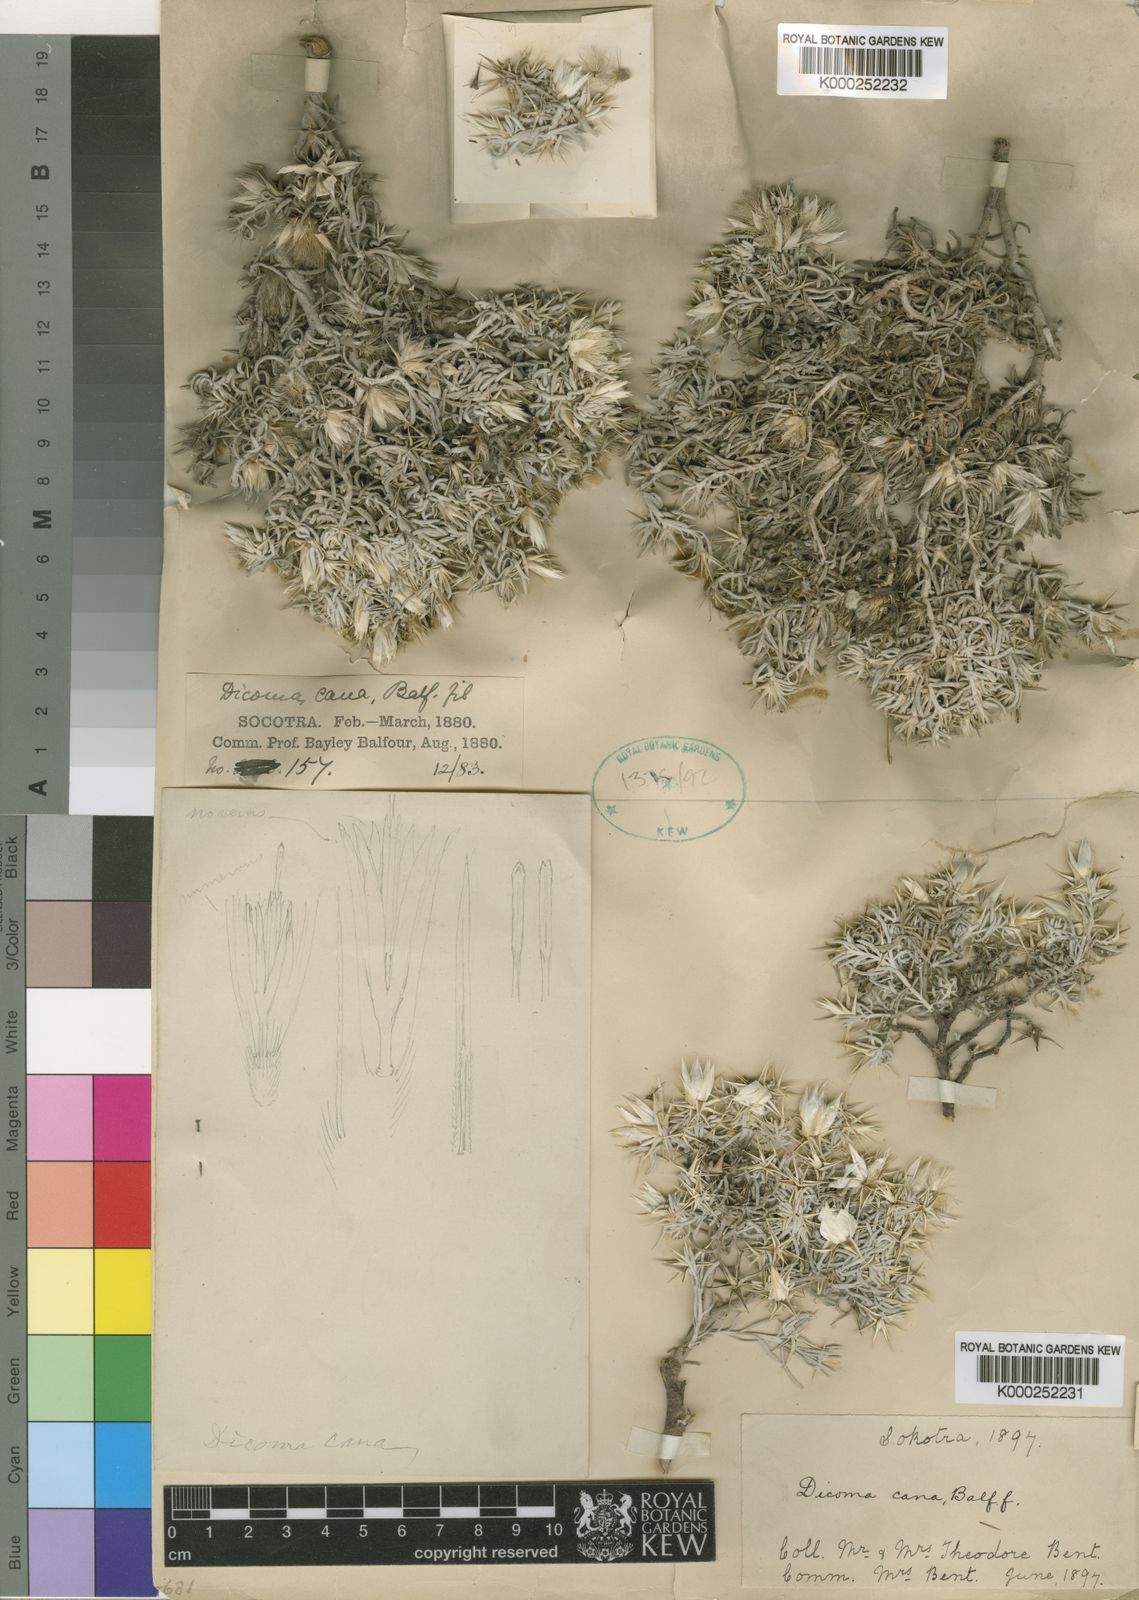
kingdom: Plantae
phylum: Tracheophyta
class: Magnoliopsida
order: Asterales
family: Asteraceae
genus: Macledium
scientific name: Macledium canum
